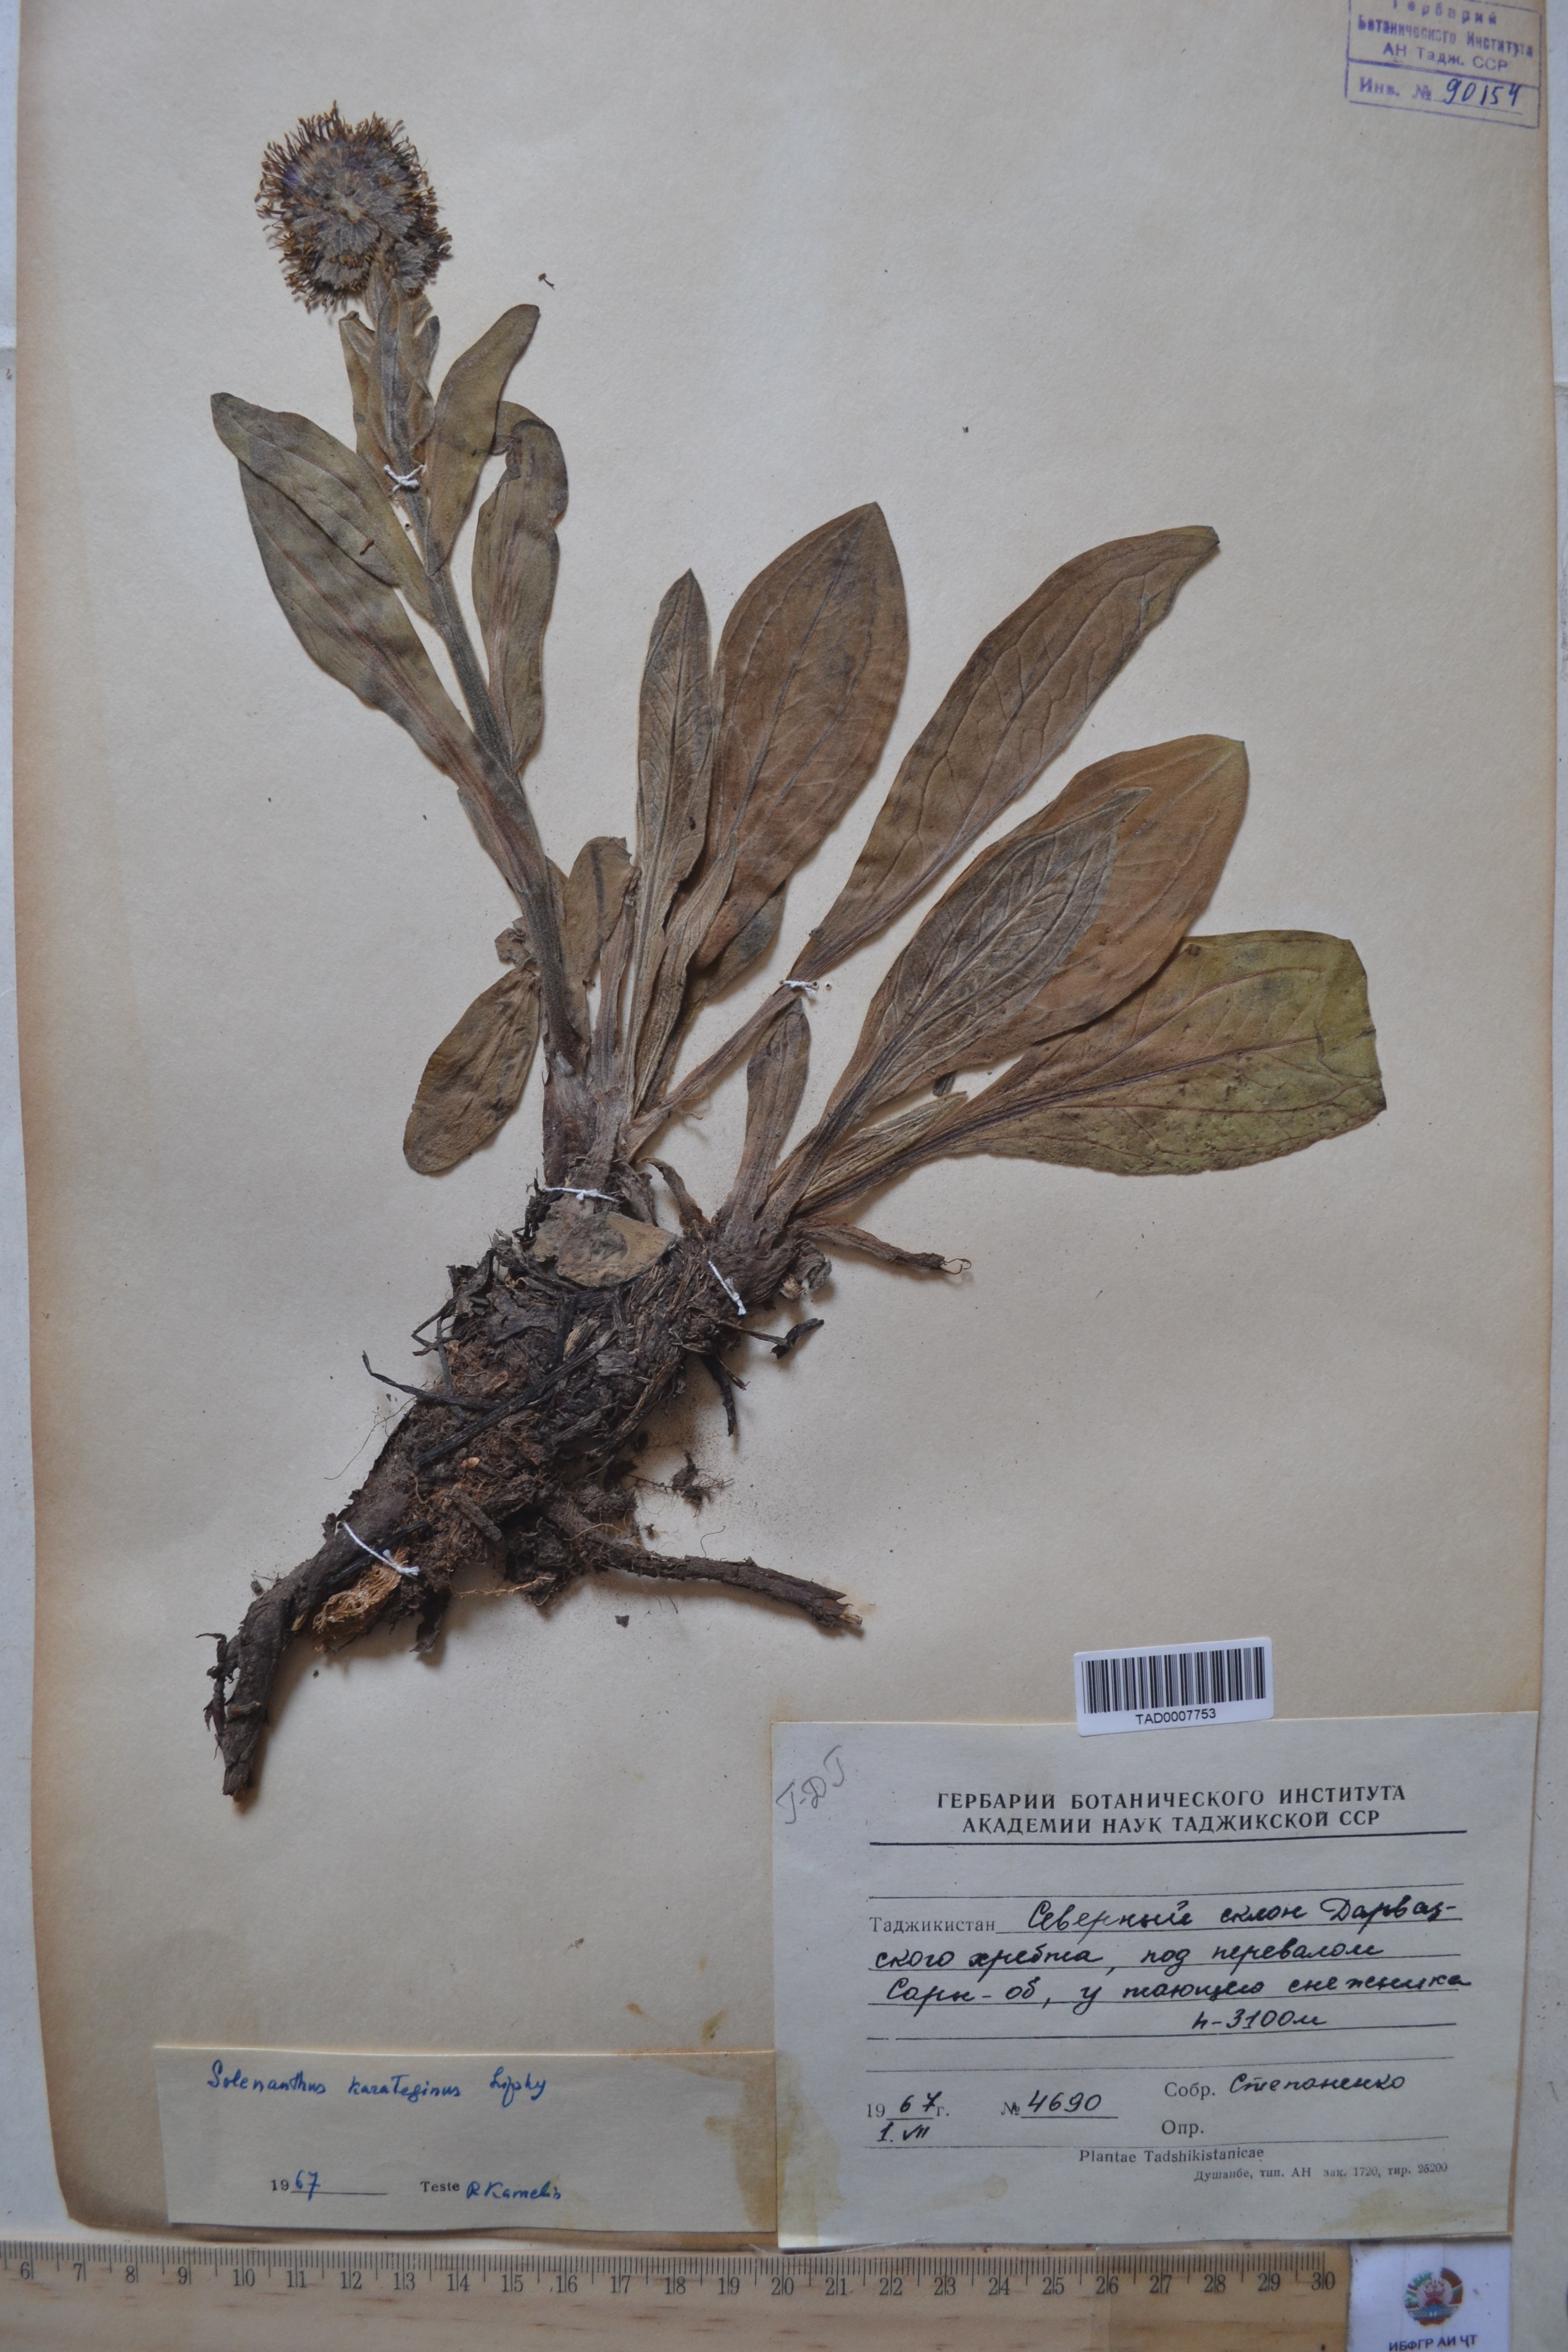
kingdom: Plantae
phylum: Tracheophyta
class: Magnoliopsida
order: Boraginales
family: Boraginaceae
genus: Solenanthus
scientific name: Solenanthus karateginus
